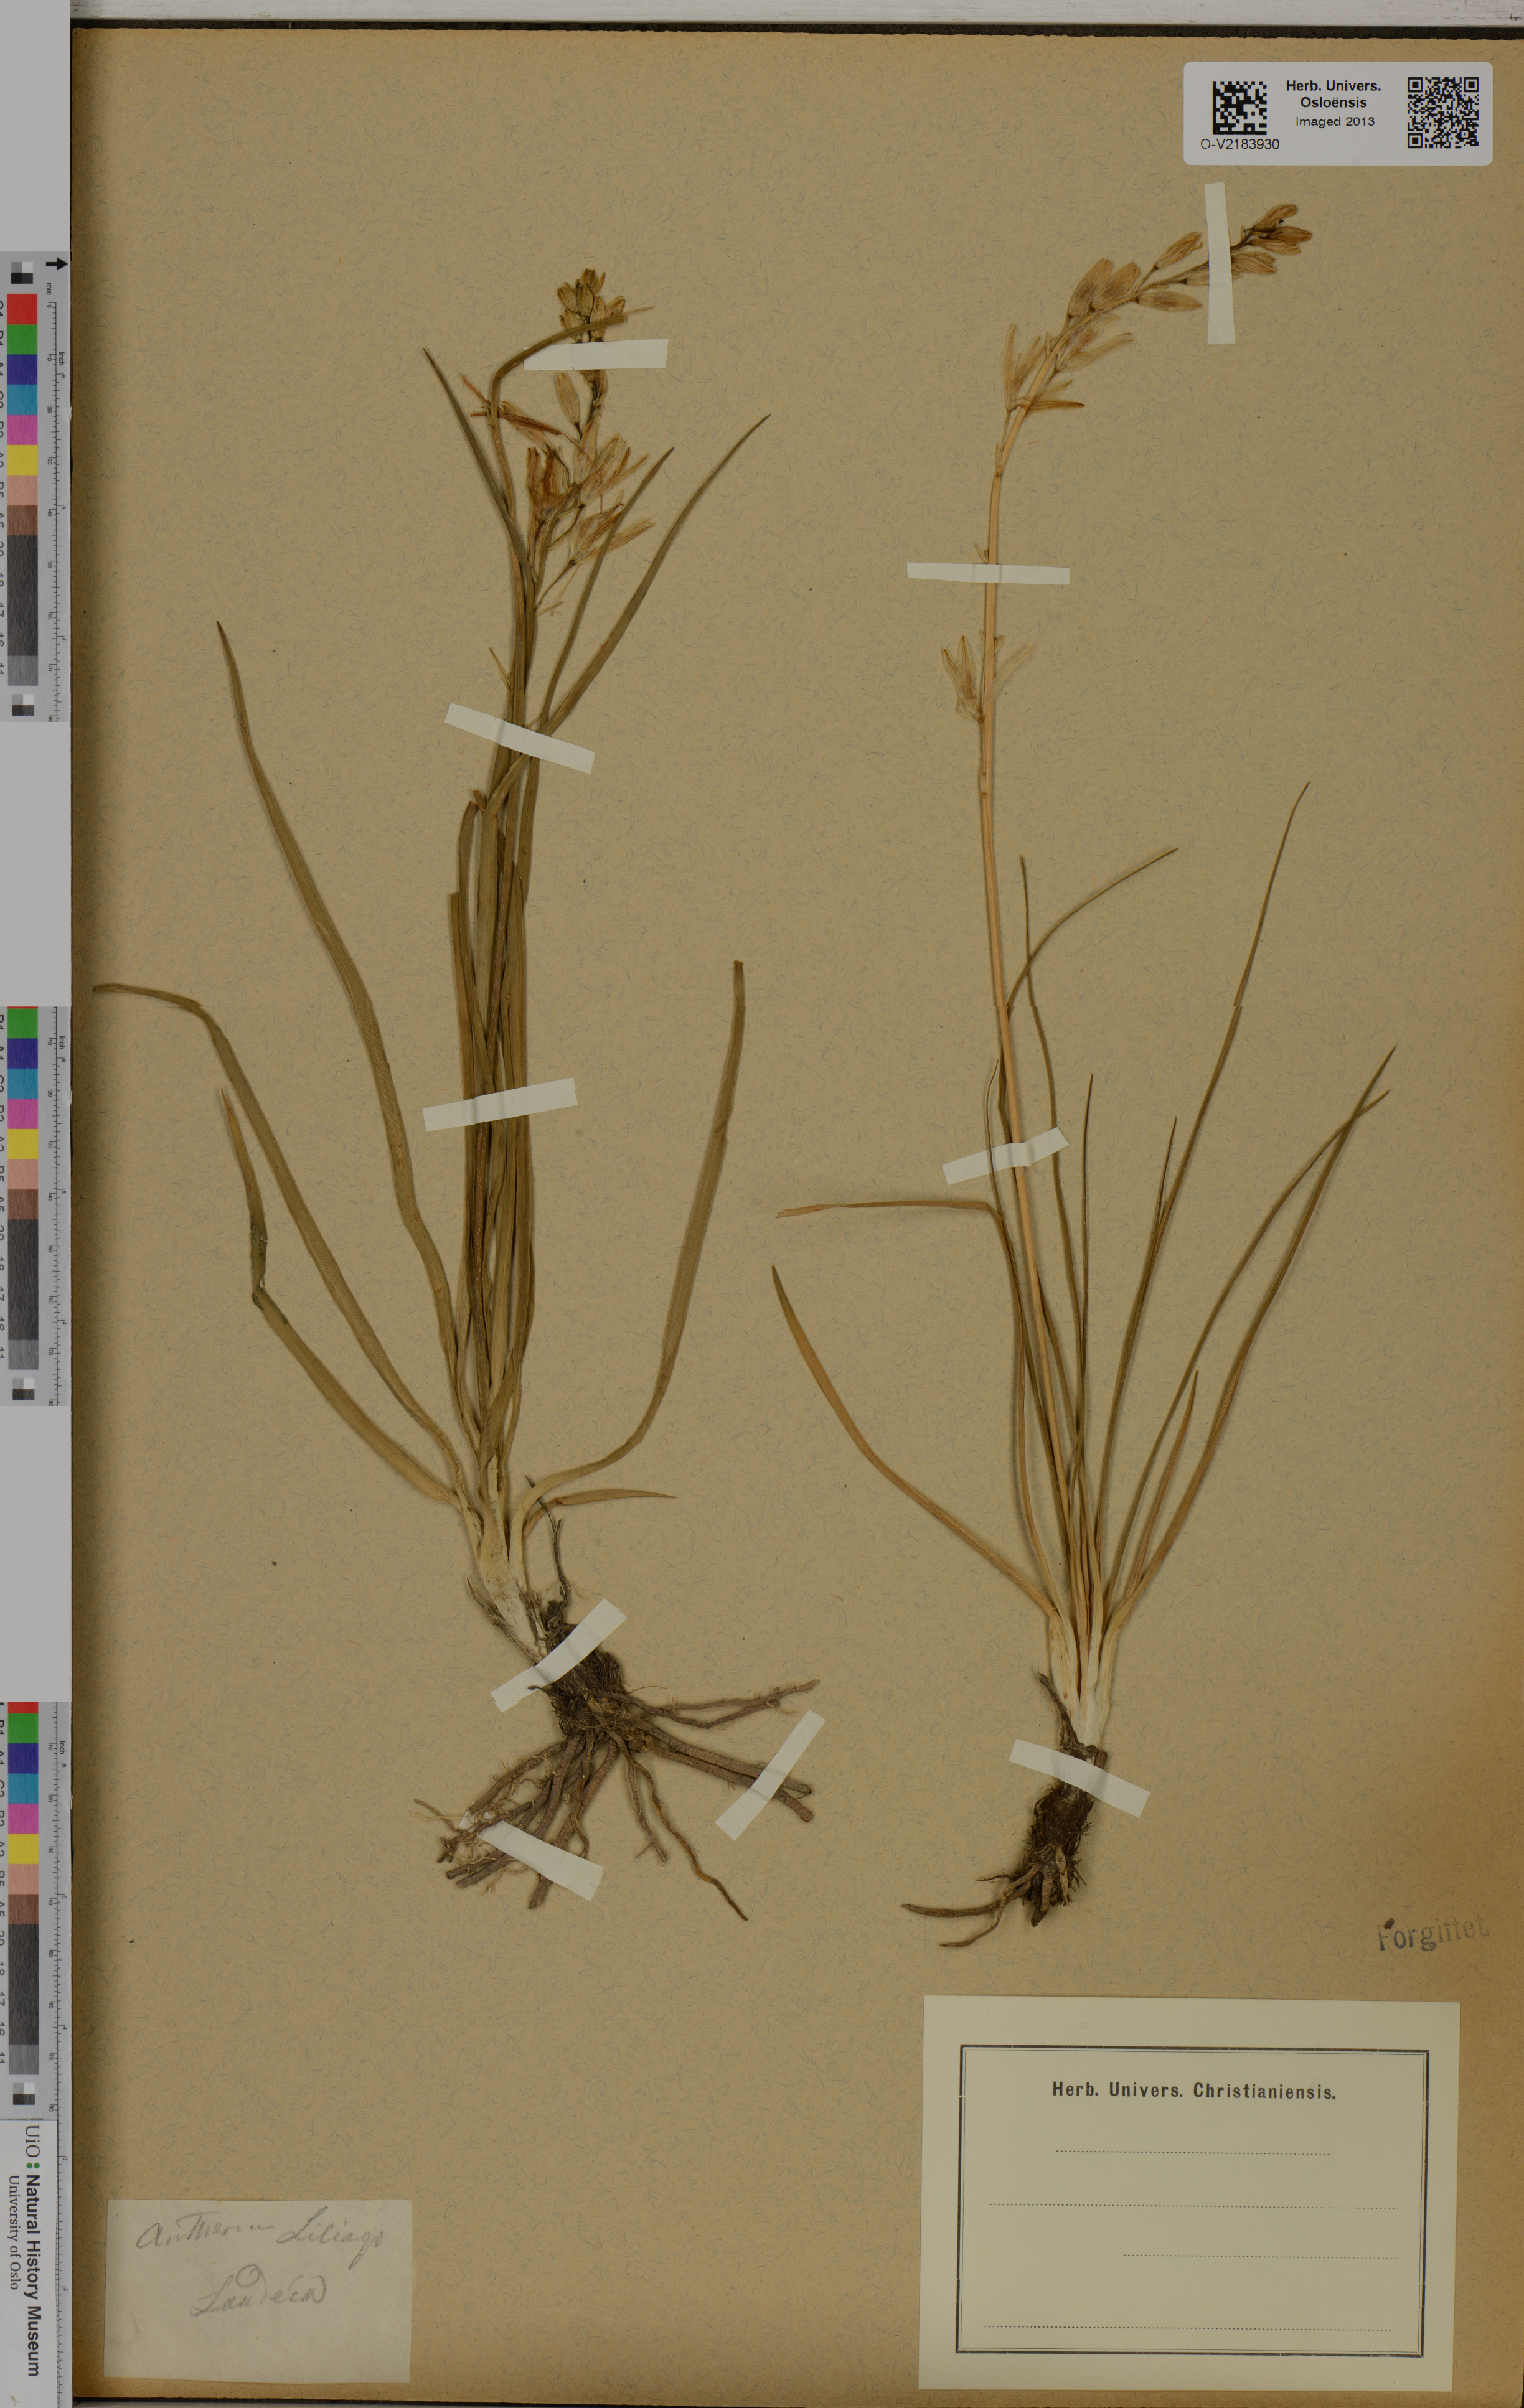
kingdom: Plantae
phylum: Tracheophyta
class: Liliopsida
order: Asparagales
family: Asparagaceae
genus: Anthericum
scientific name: Anthericum liliago
